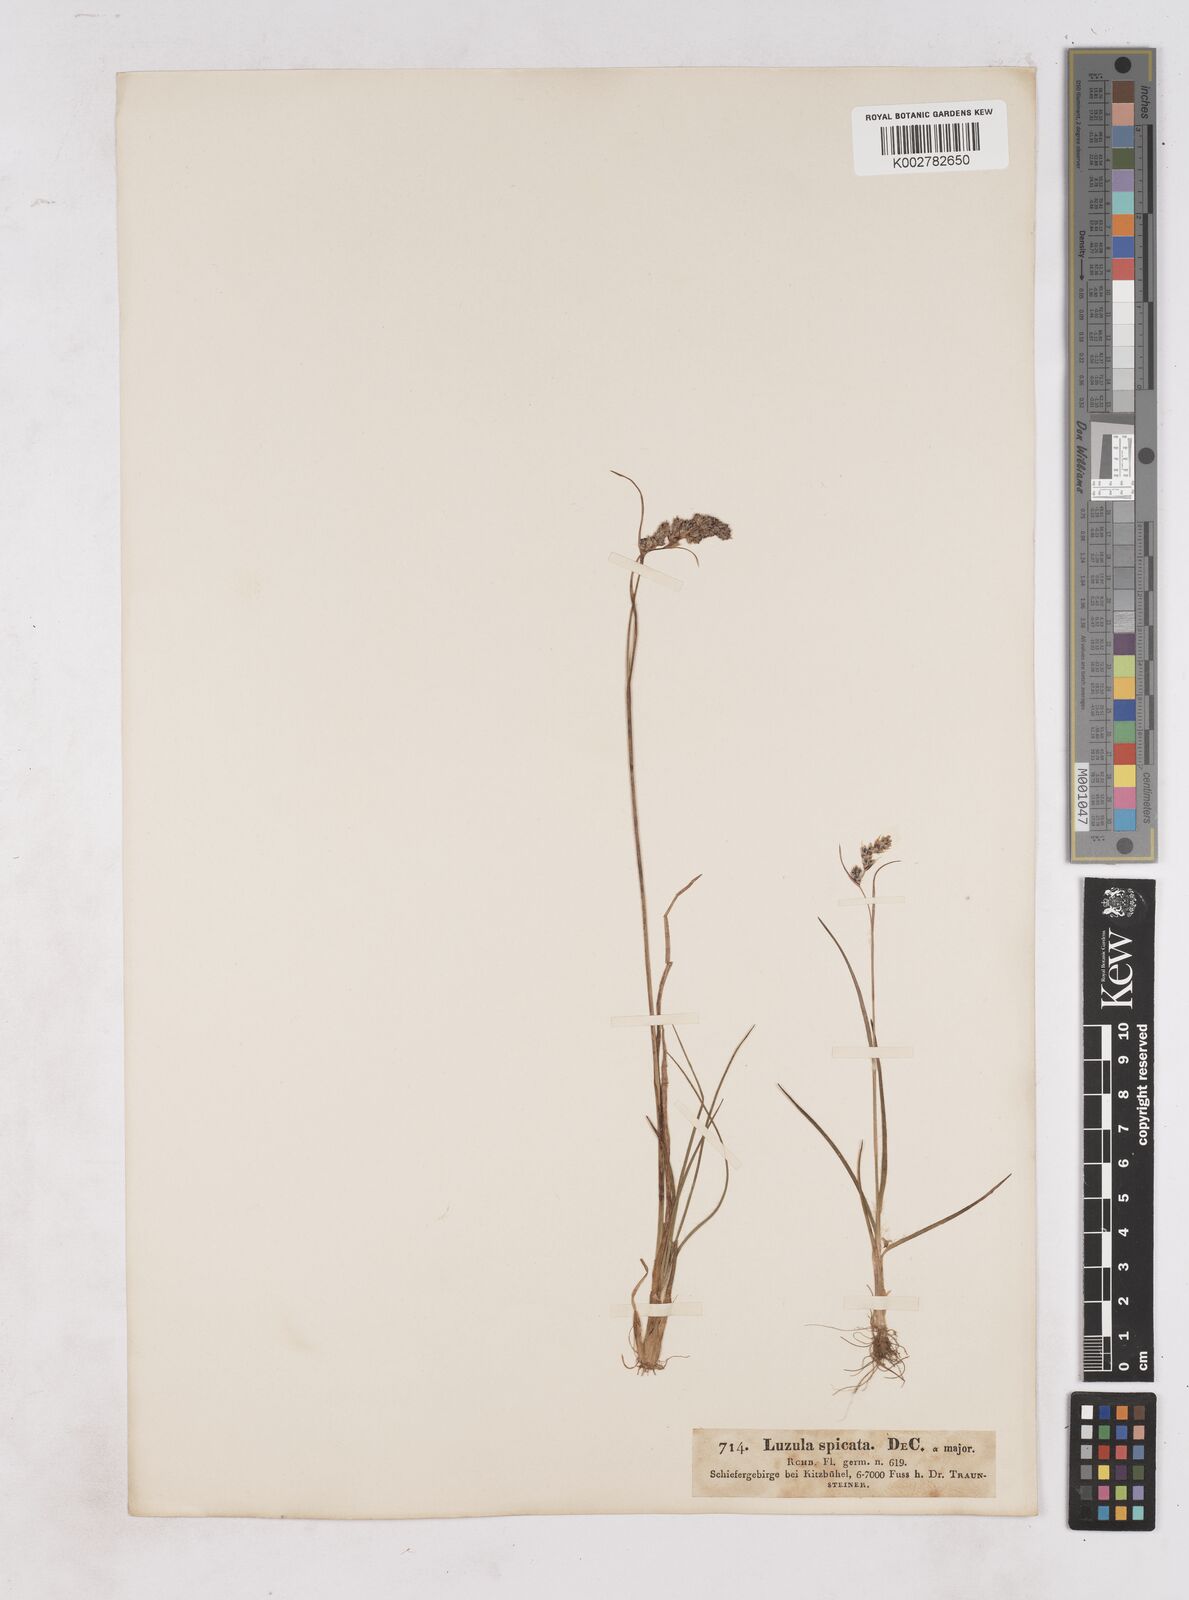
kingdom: Plantae
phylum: Tracheophyta
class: Liliopsida
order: Poales
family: Juncaceae
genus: Luzula
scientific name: Luzula spicata
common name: Spiked wood-rush
